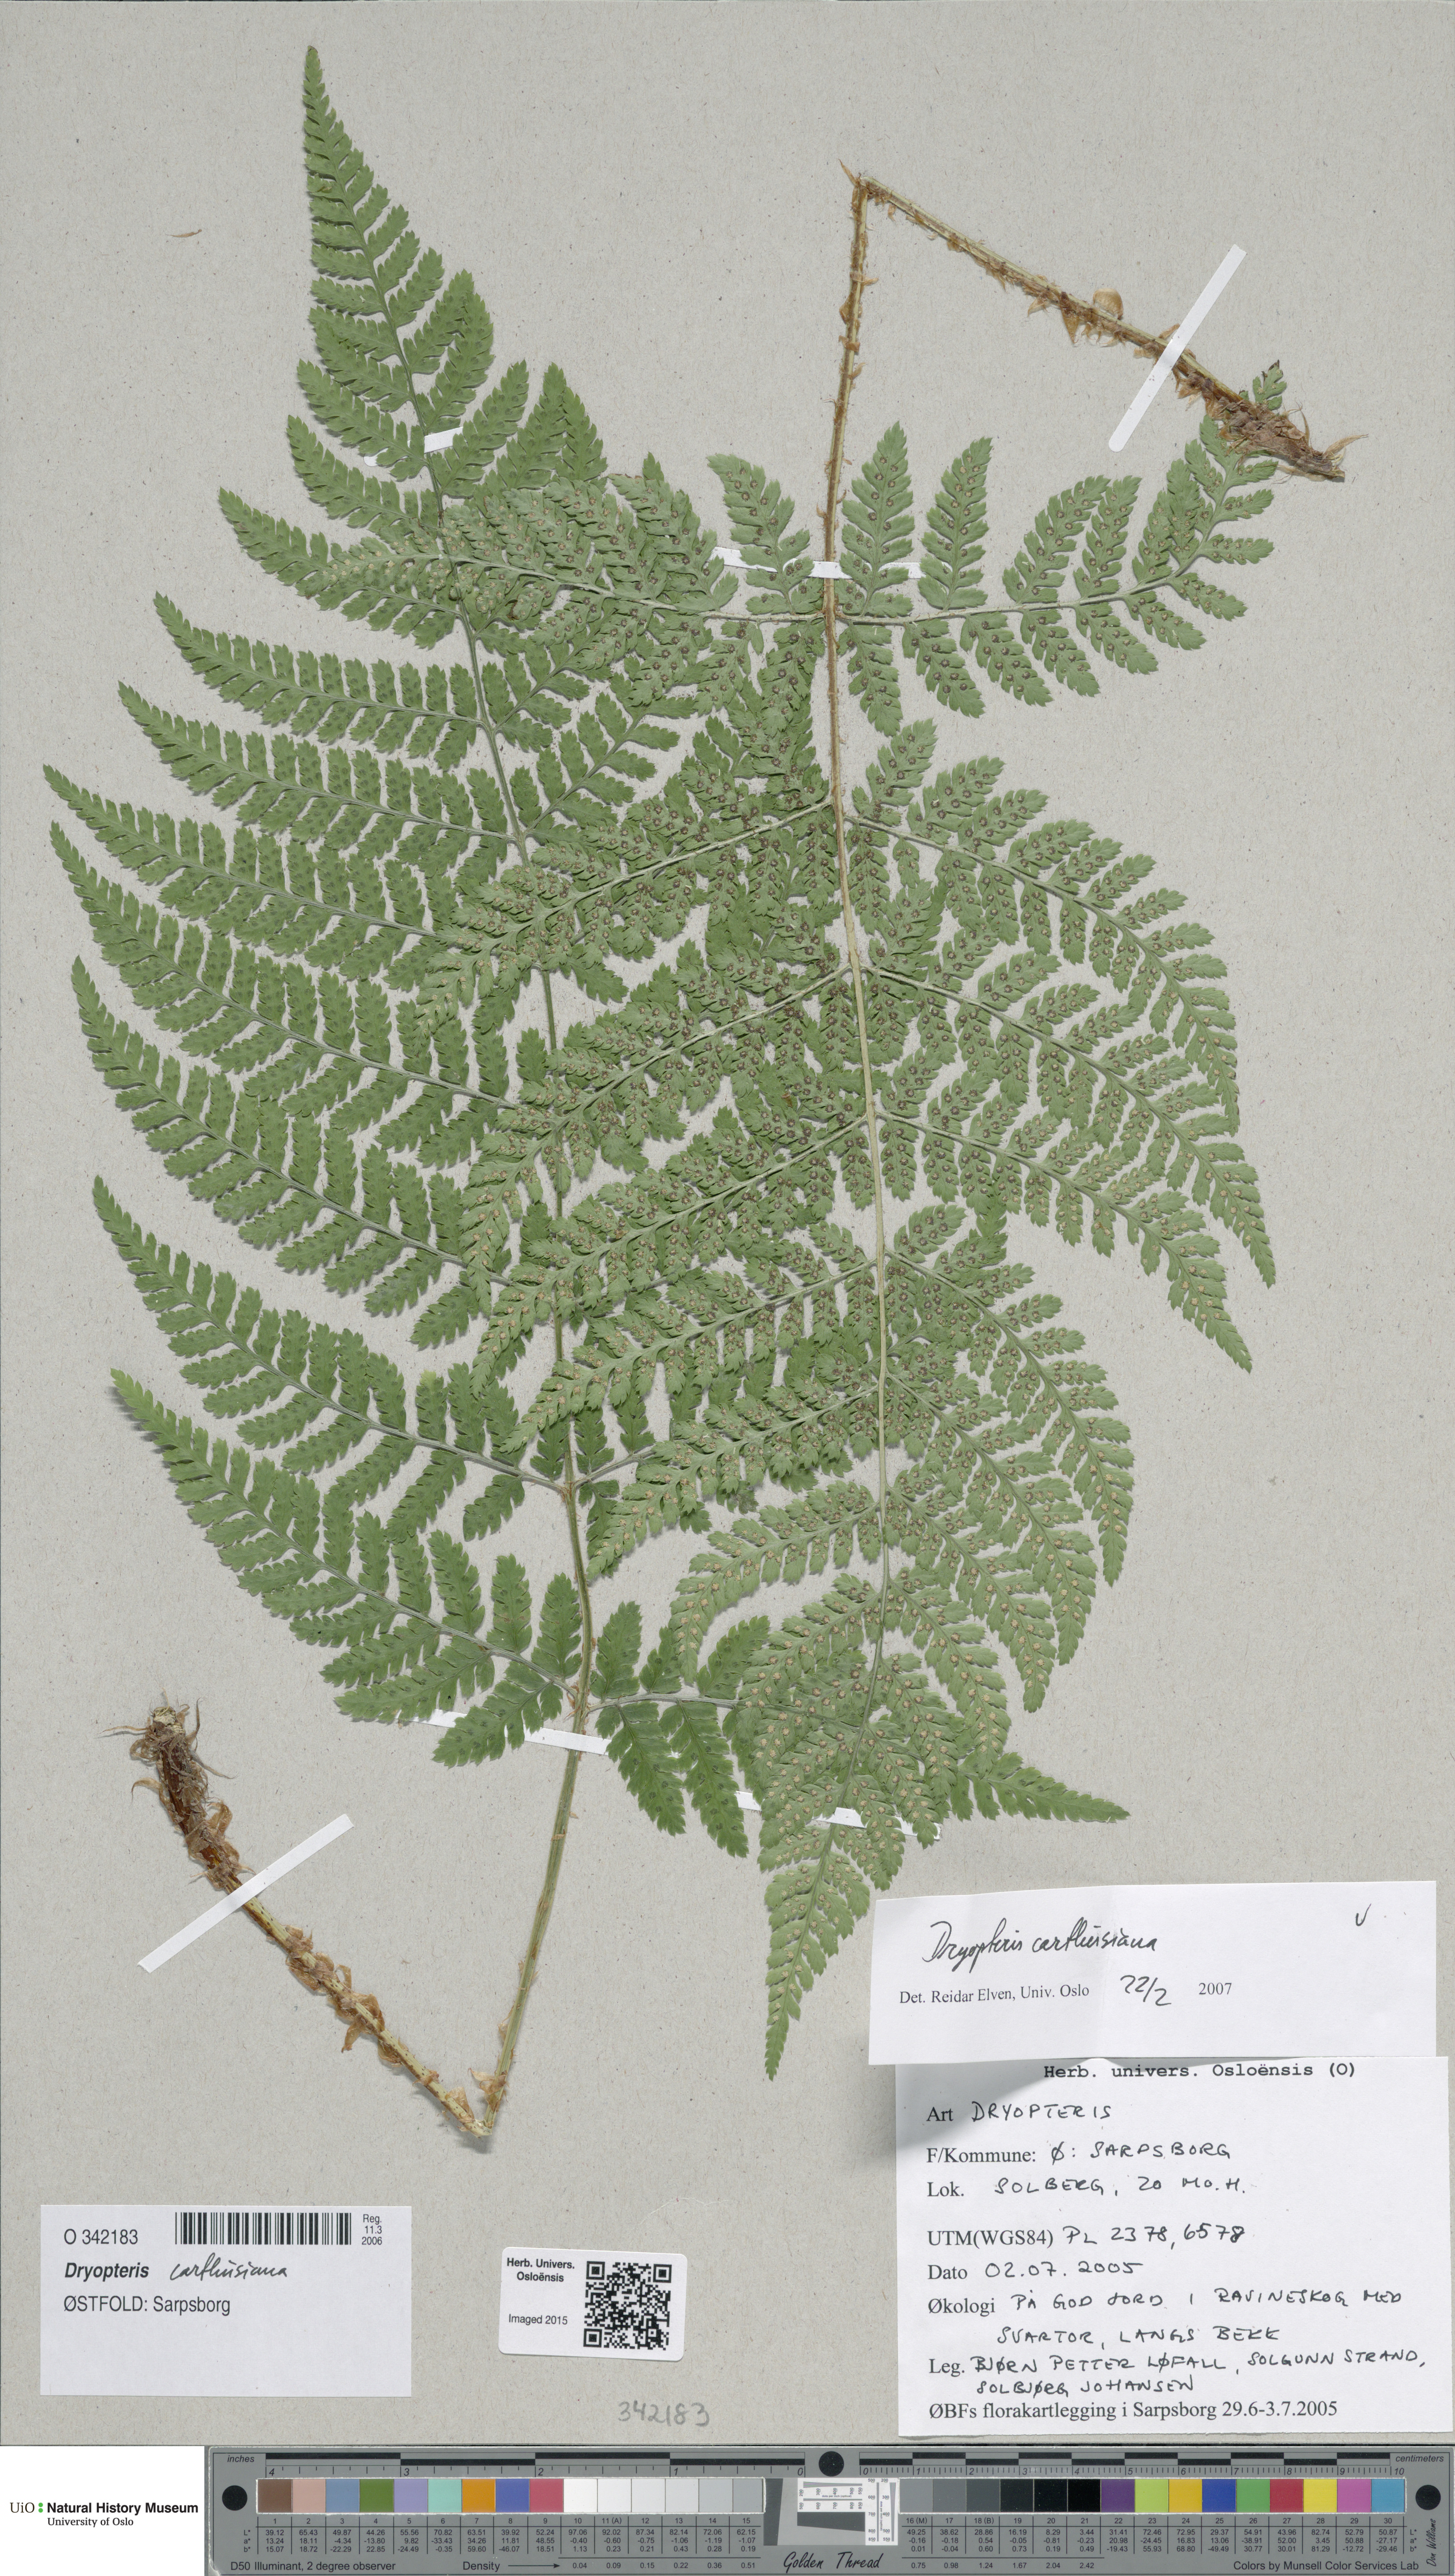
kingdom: Plantae
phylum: Tracheophyta
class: Polypodiopsida
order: Polypodiales
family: Dryopteridaceae
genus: Dryopteris
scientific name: Dryopteris carthusiana
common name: Narrow buckler-fern
